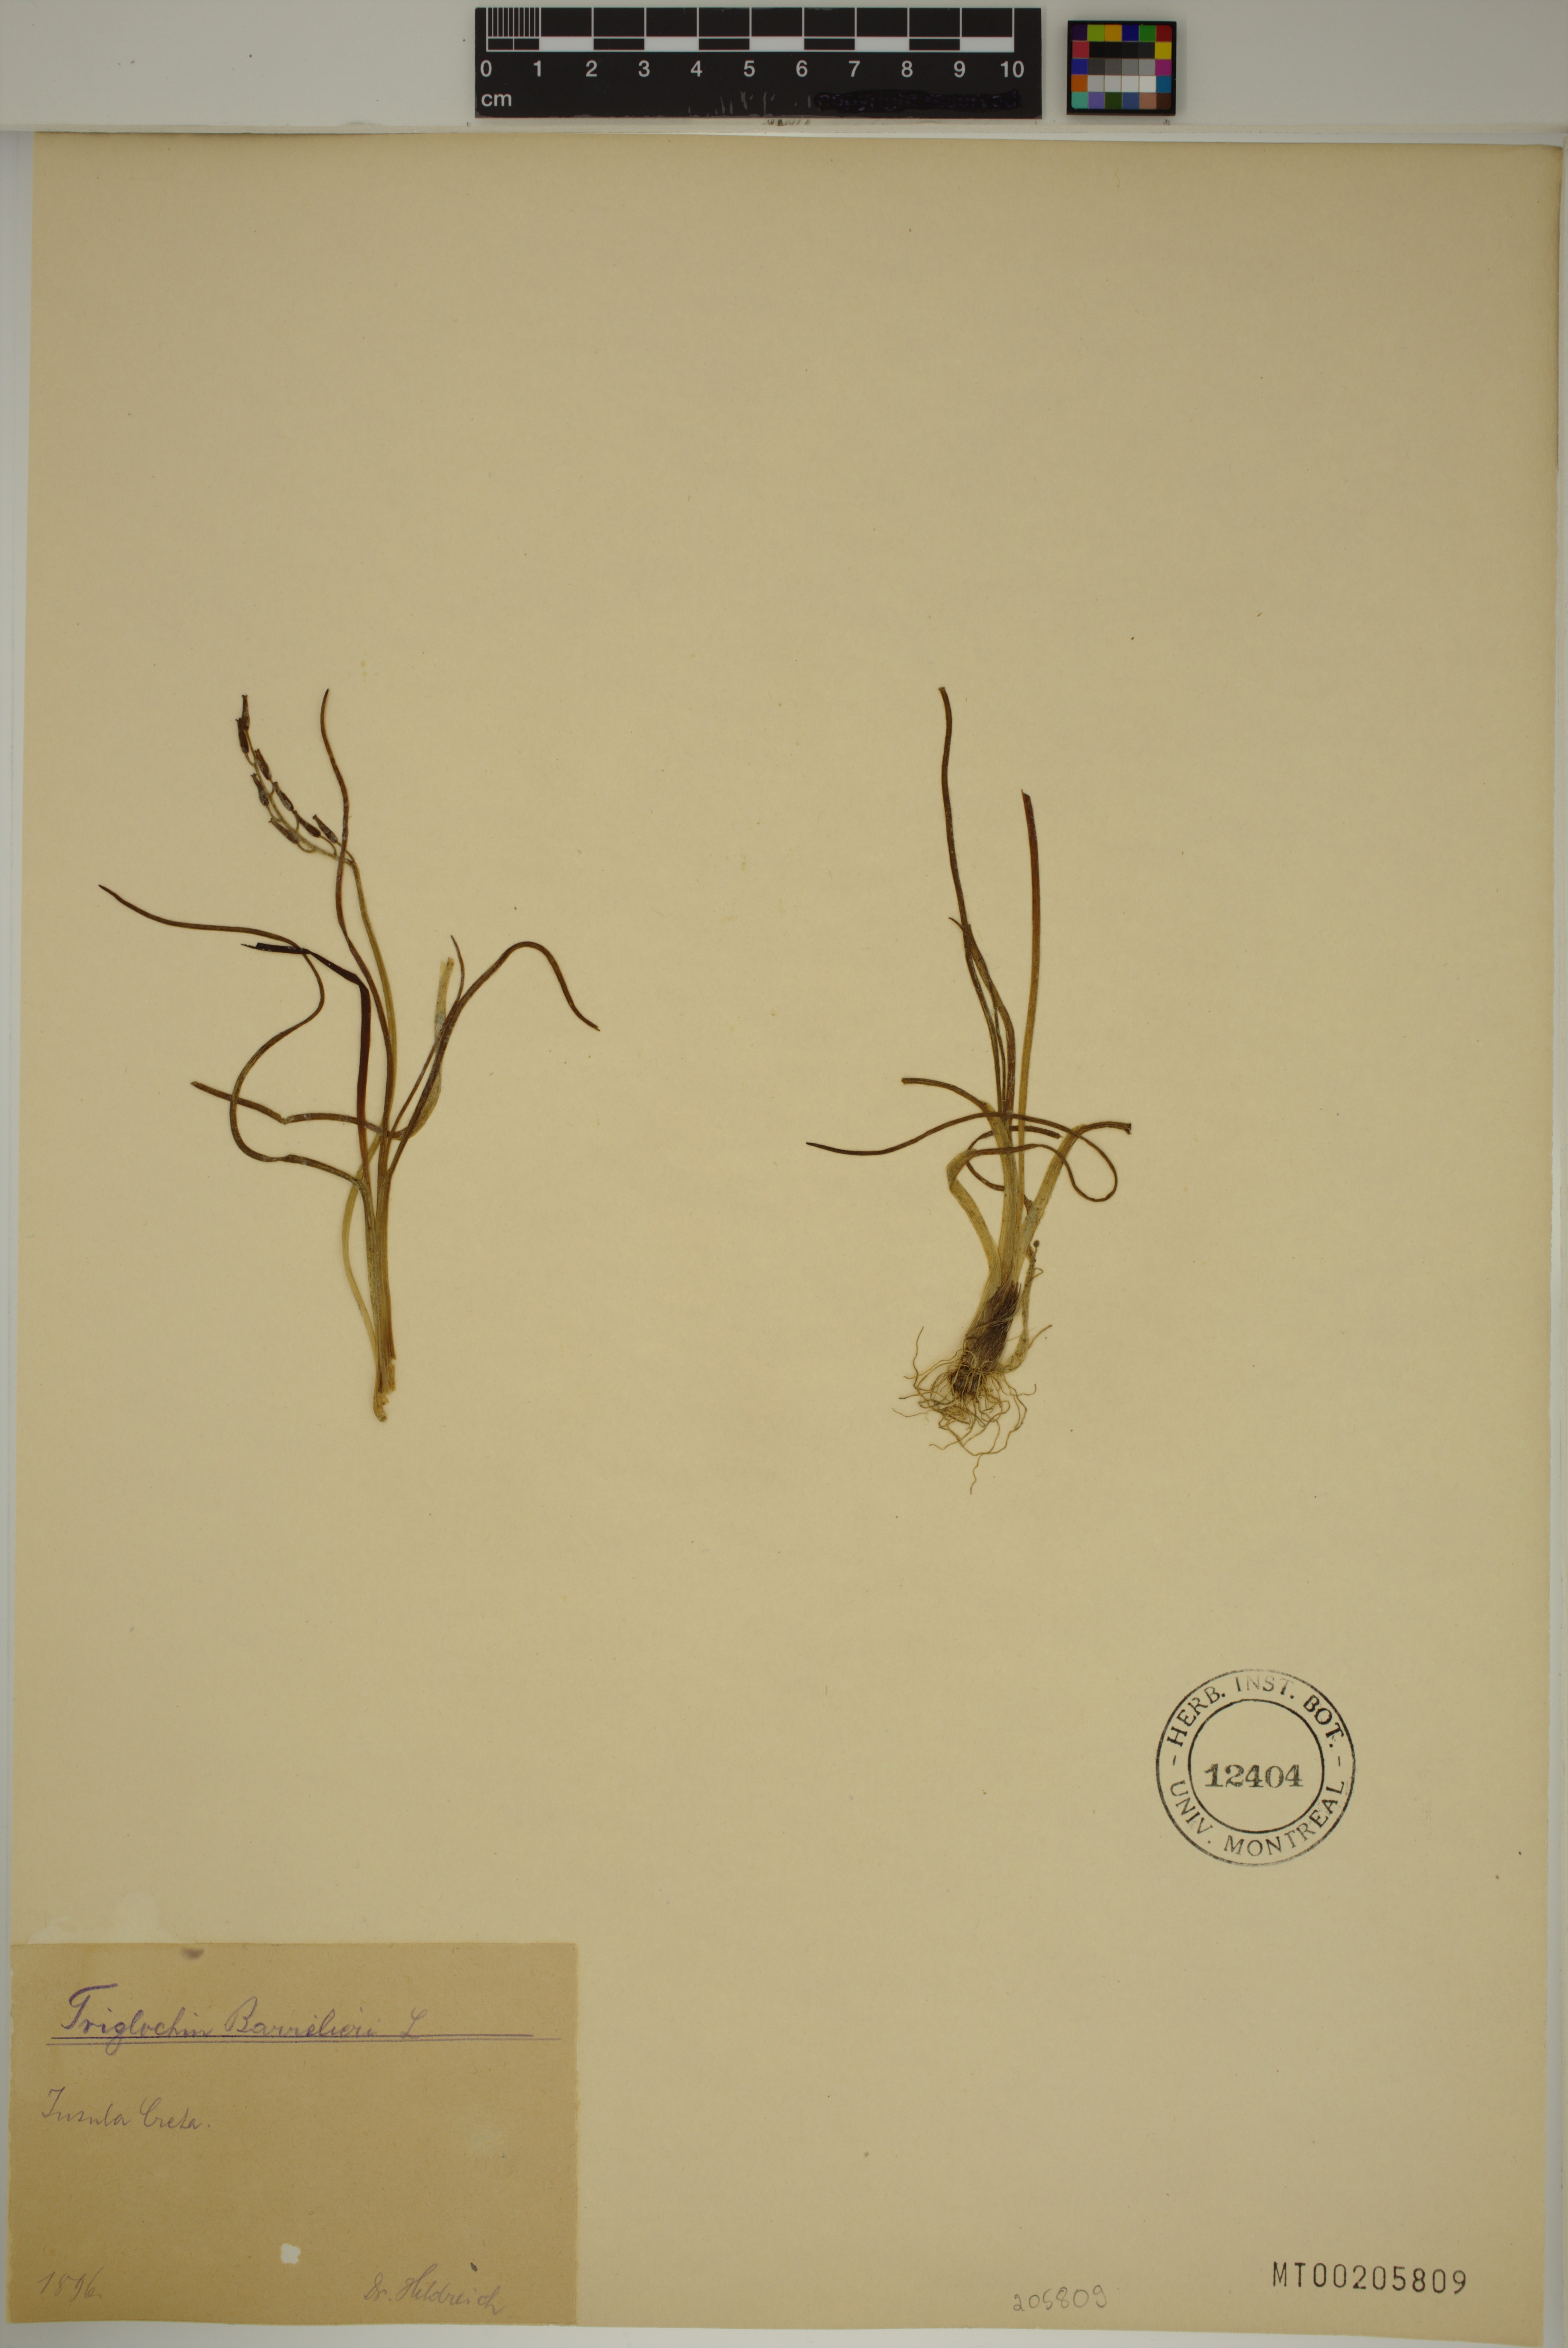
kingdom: Plantae
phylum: Tracheophyta
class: Liliopsida
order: Alismatales
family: Juncaginaceae
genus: Triglochin
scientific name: Triglochin barrelieri
